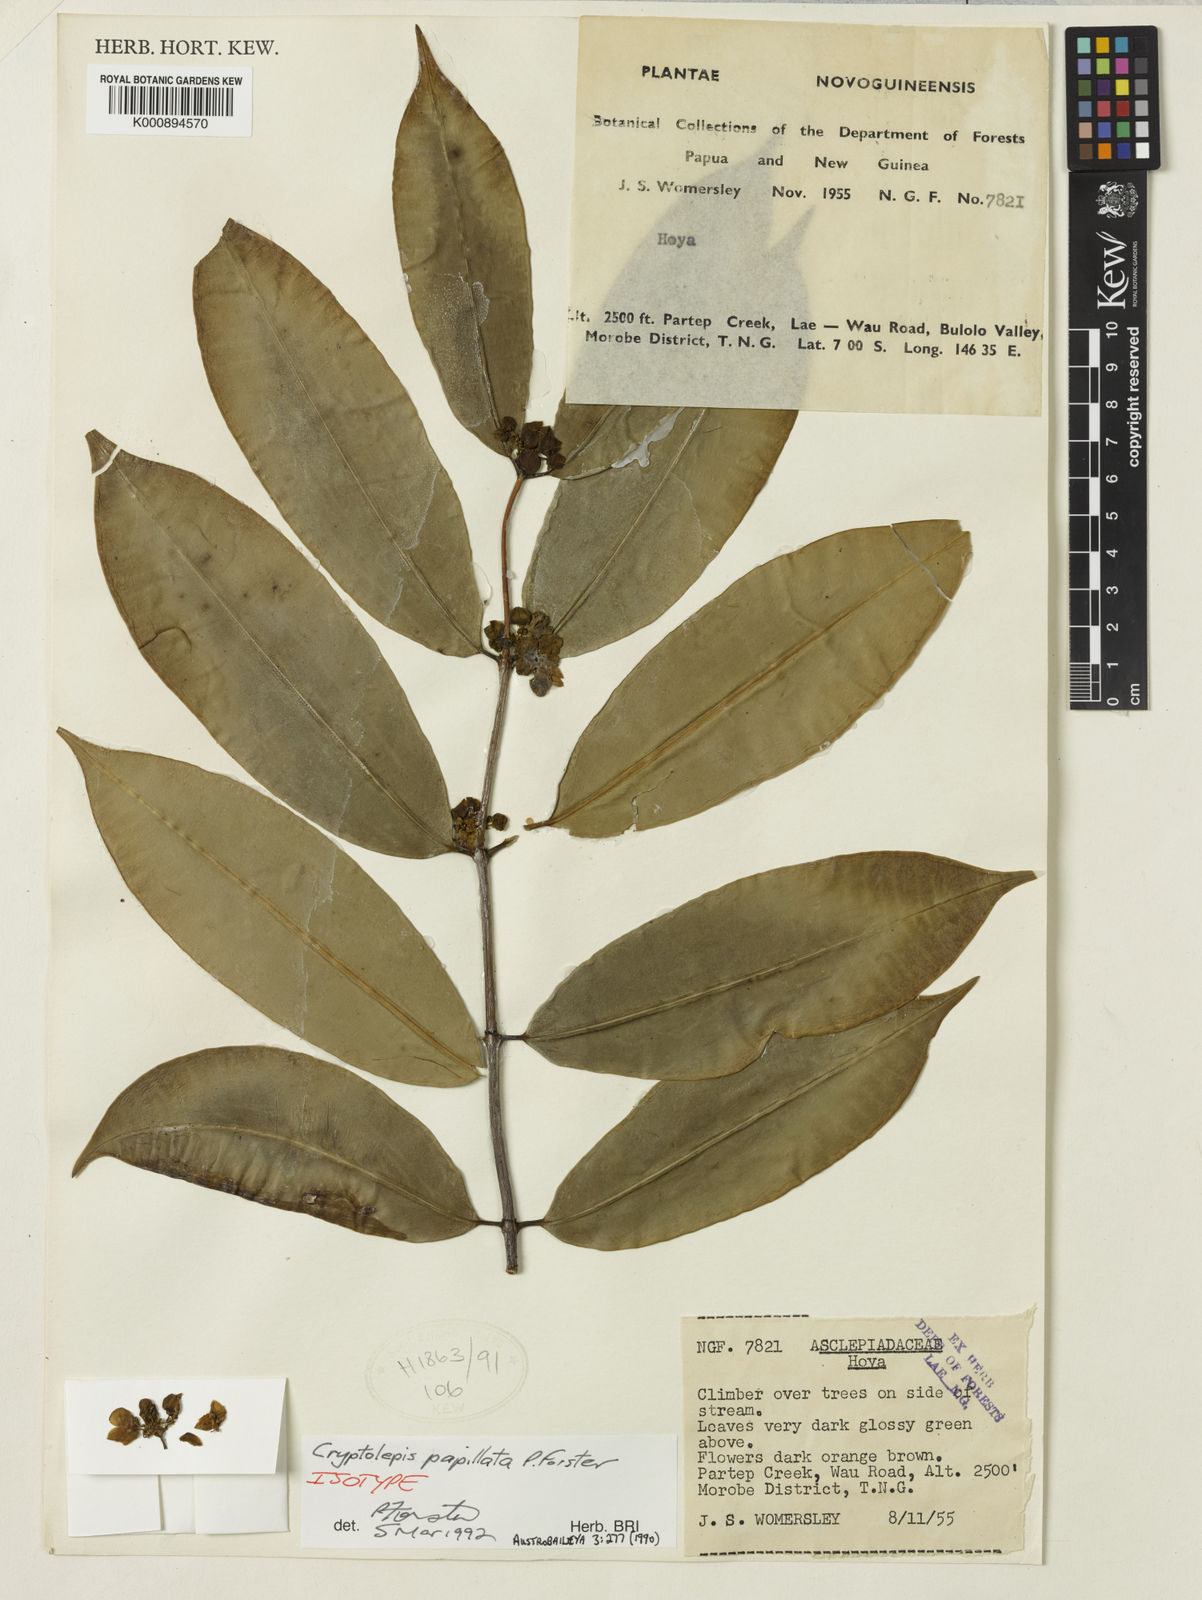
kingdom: Plantae
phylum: Tracheophyta
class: Magnoliopsida
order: Gentianales
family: Apocynaceae
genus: Phyllanthera
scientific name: Phyllanthera papillata
